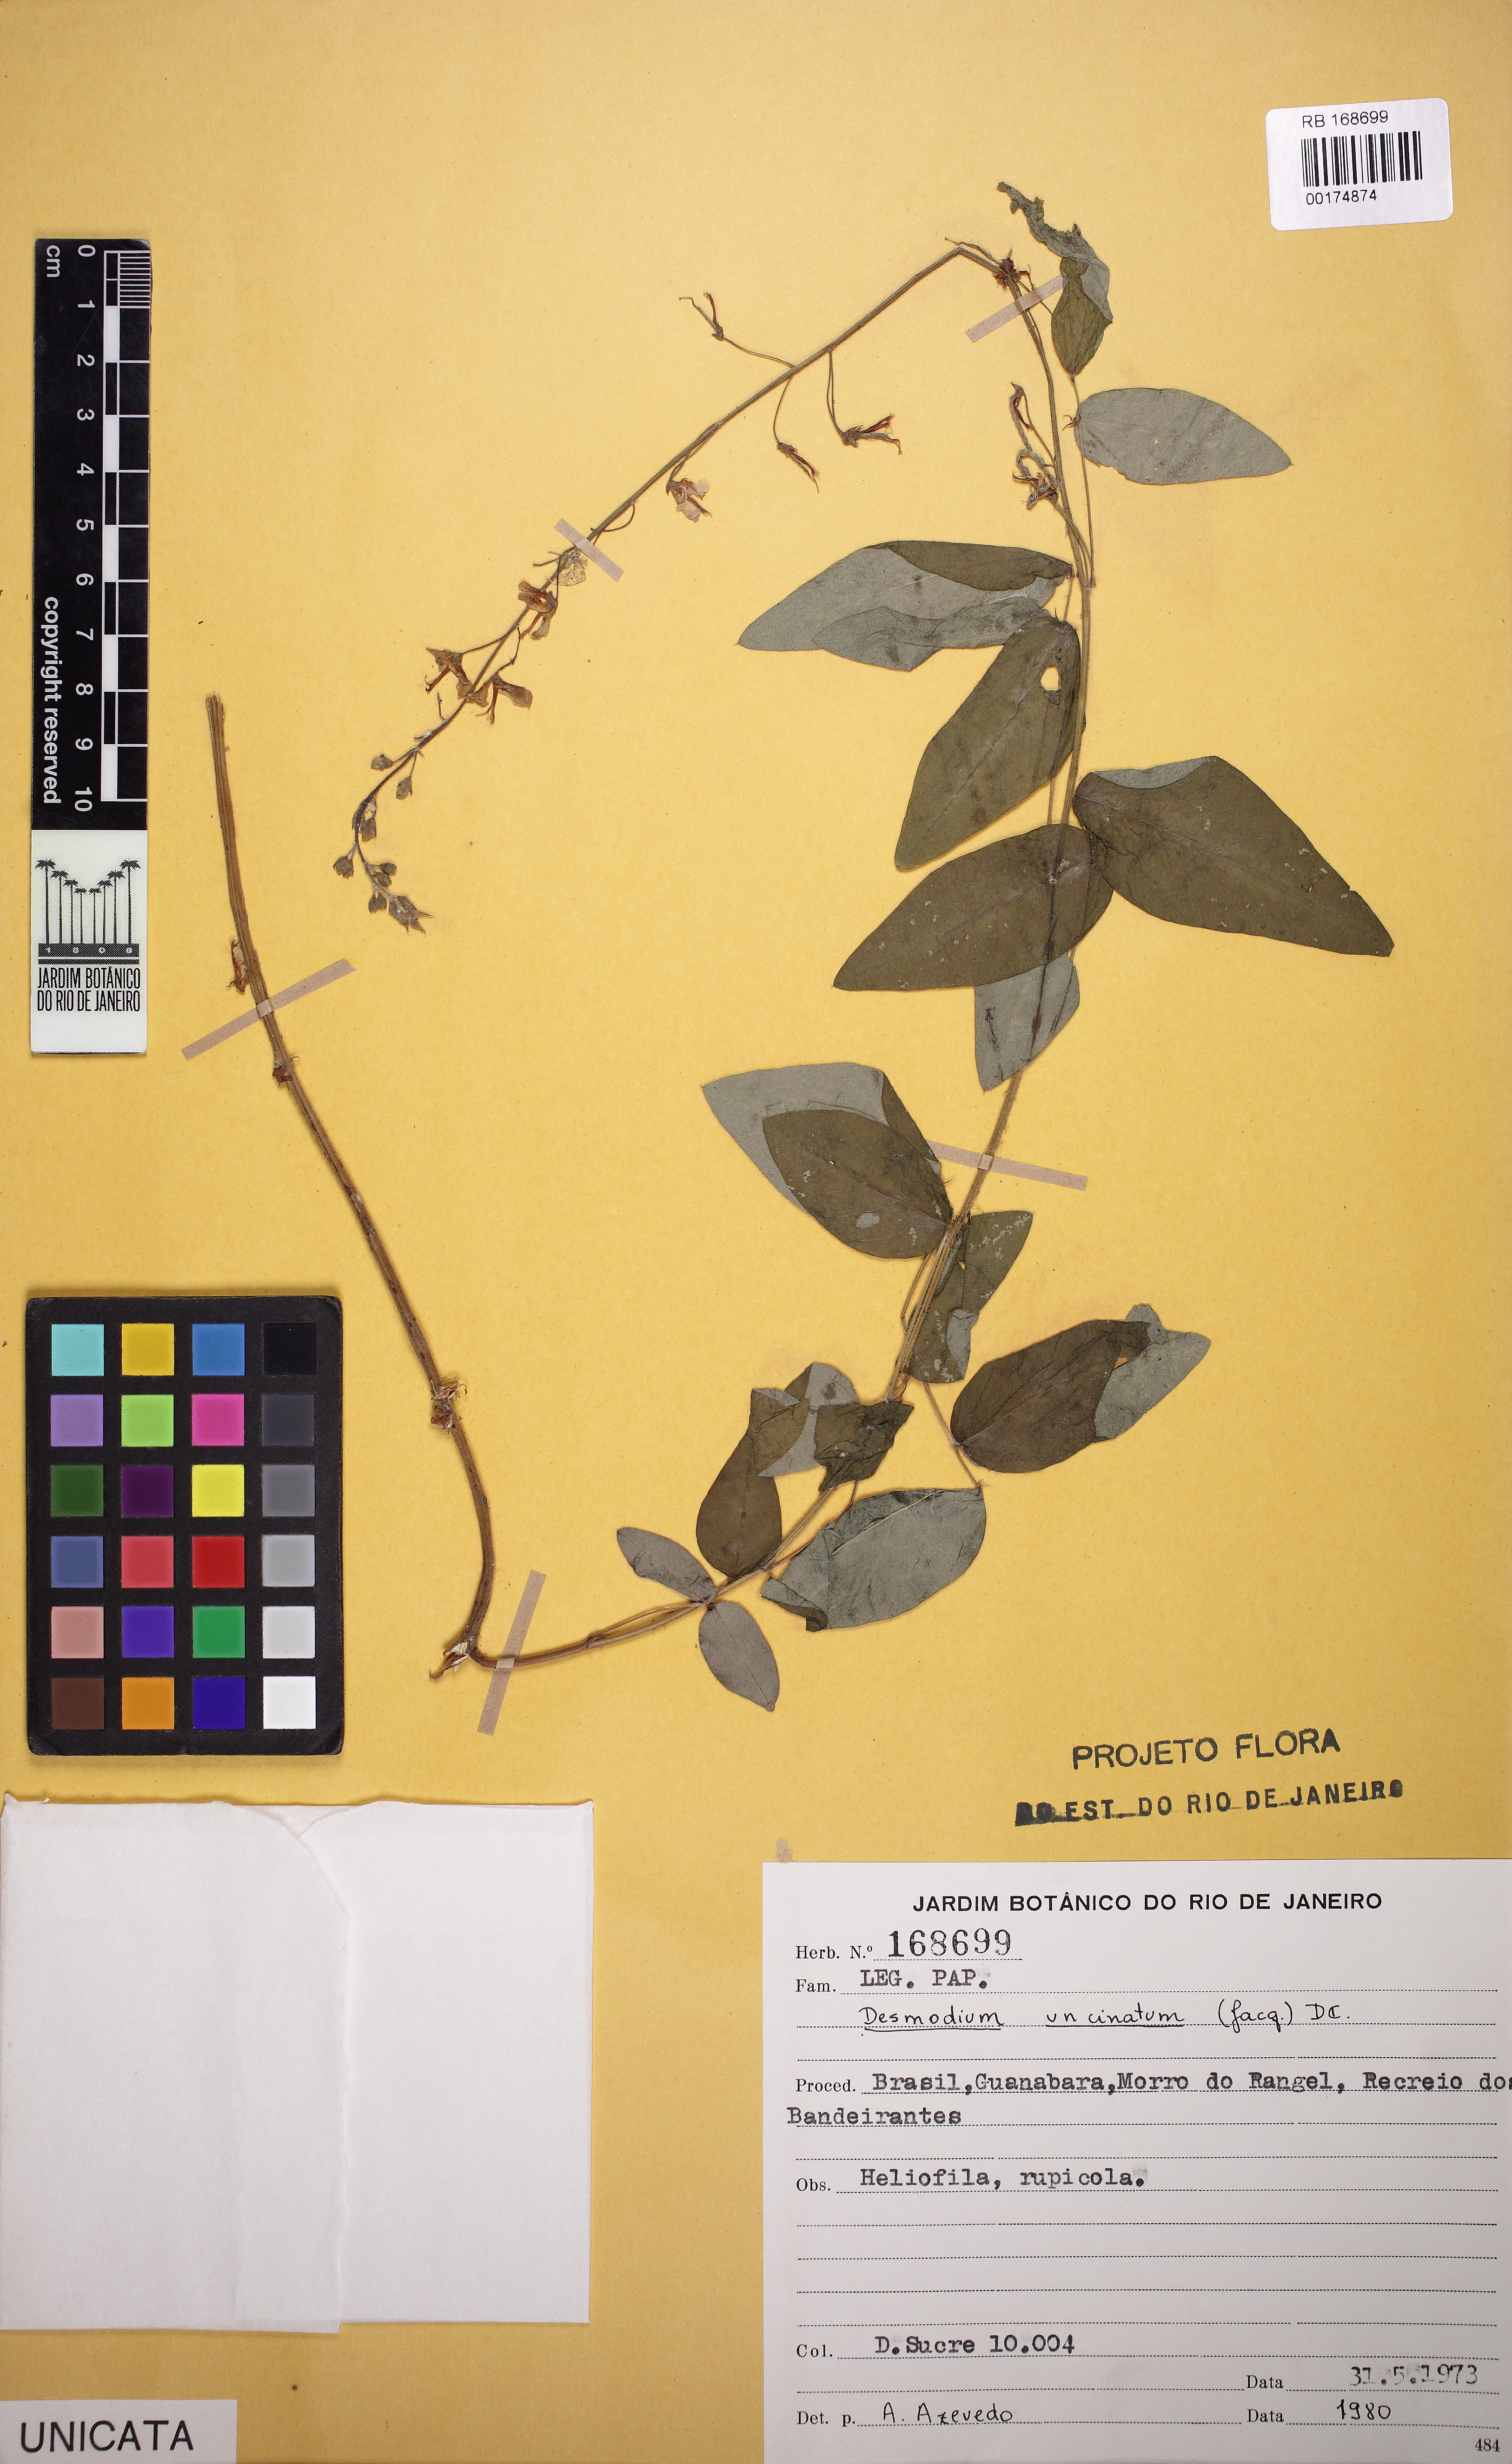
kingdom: Plantae
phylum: Tracheophyta
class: Magnoliopsida
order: Fabales
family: Fabaceae
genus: Desmodium
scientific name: Desmodium uncinatum
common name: Silverleaf desmodium
